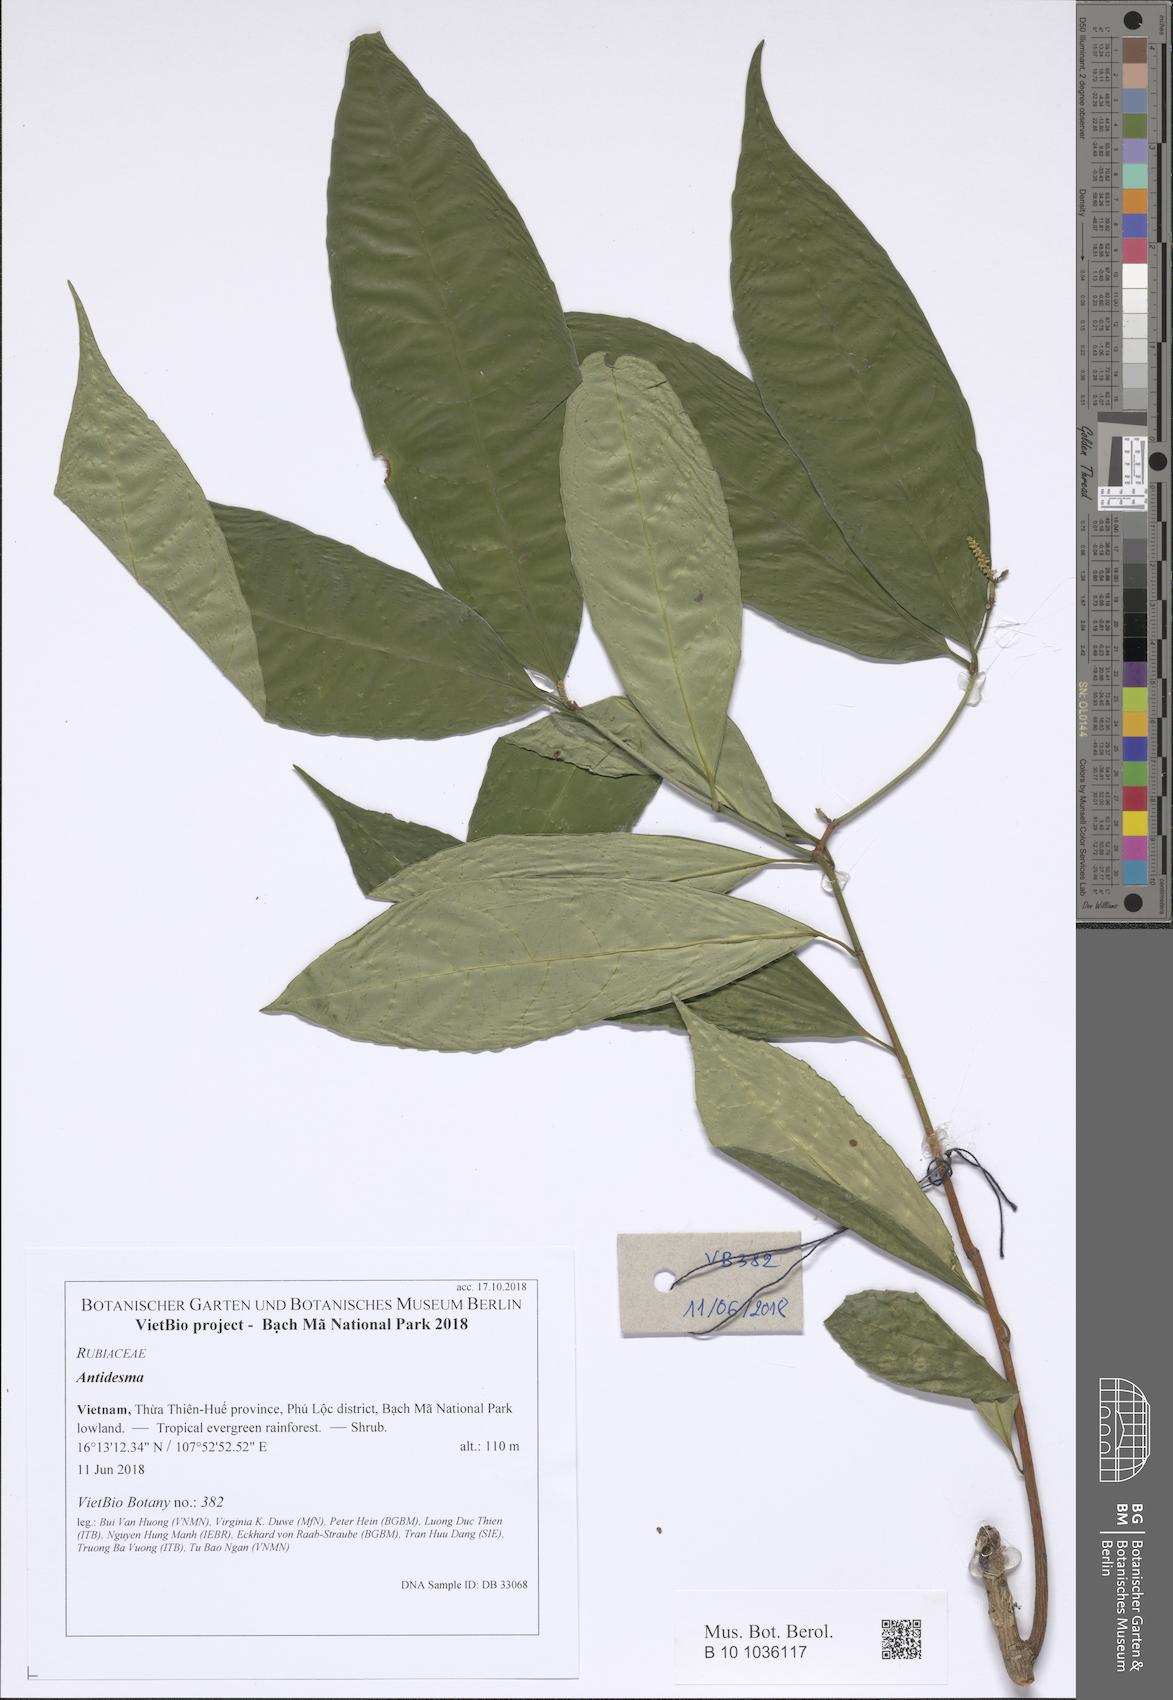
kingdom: Plantae
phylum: Tracheophyta
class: Magnoliopsida
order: Malpighiales
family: Phyllanthaceae
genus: Antidesma
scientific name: Antidesma ambiguum
